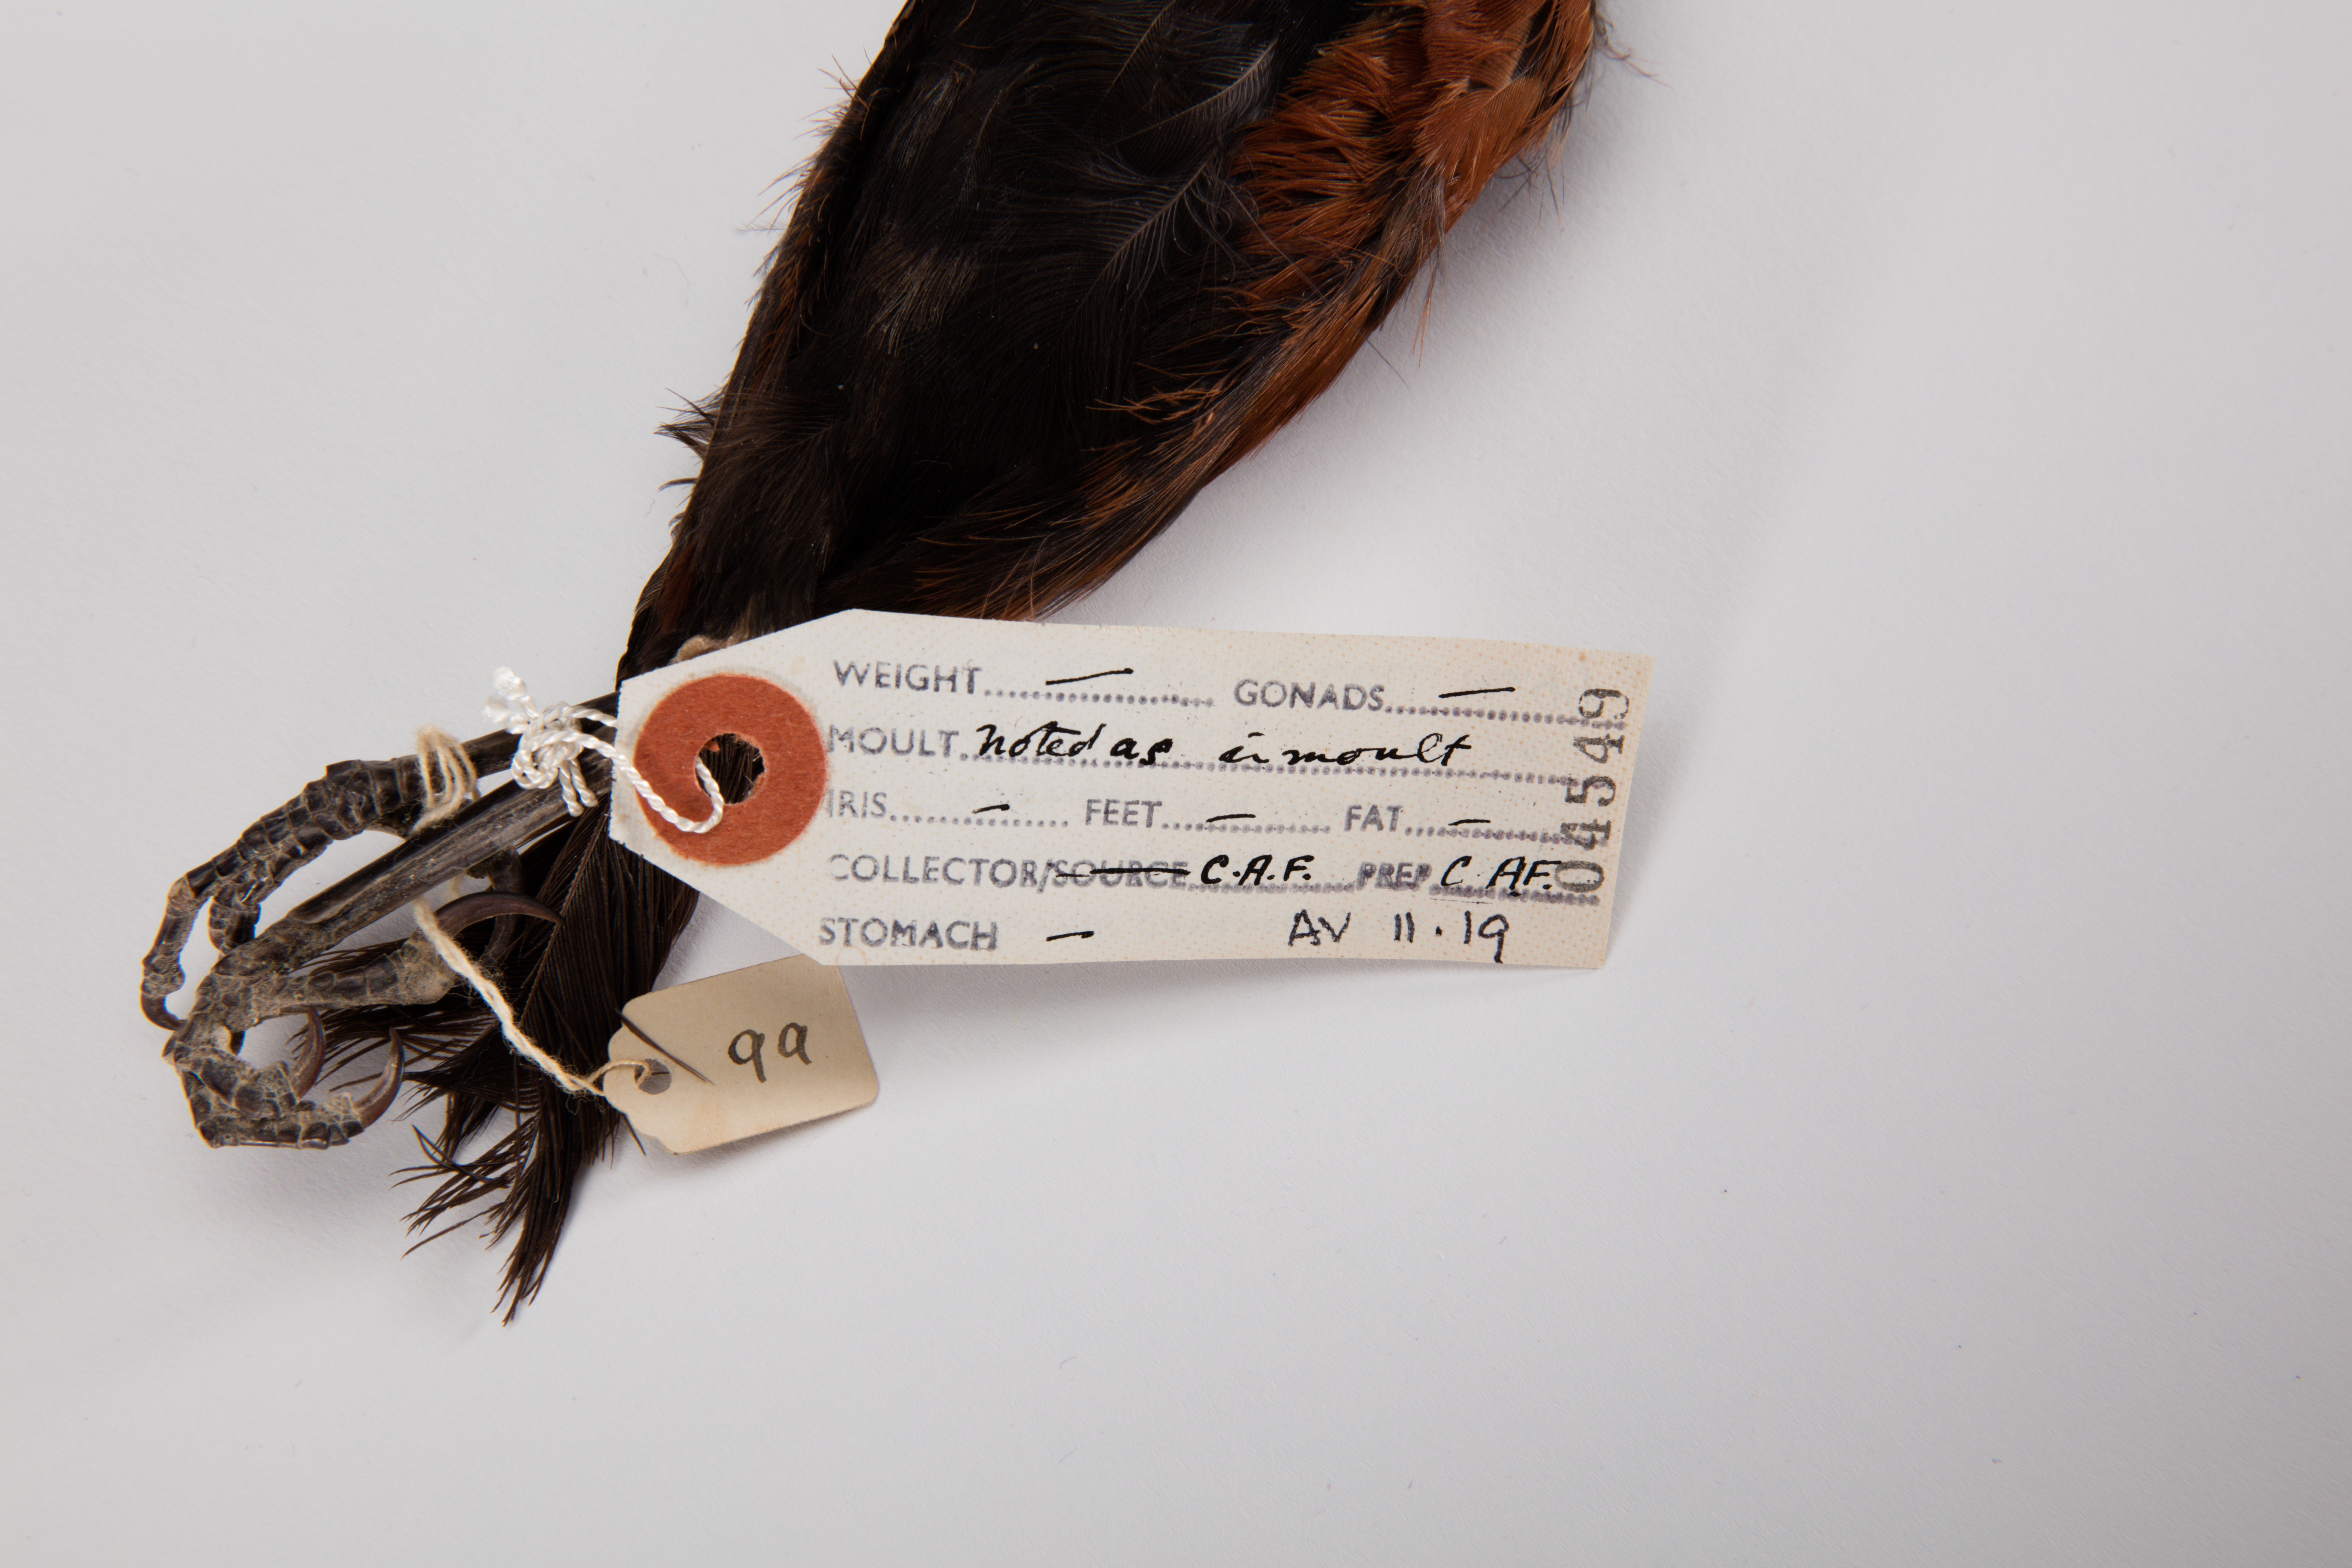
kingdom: Animalia
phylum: Chordata
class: Aves
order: Passeriformes
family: Callaeatidae
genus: Philesturnus
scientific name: Philesturnus carunculatus
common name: South island saddleback
